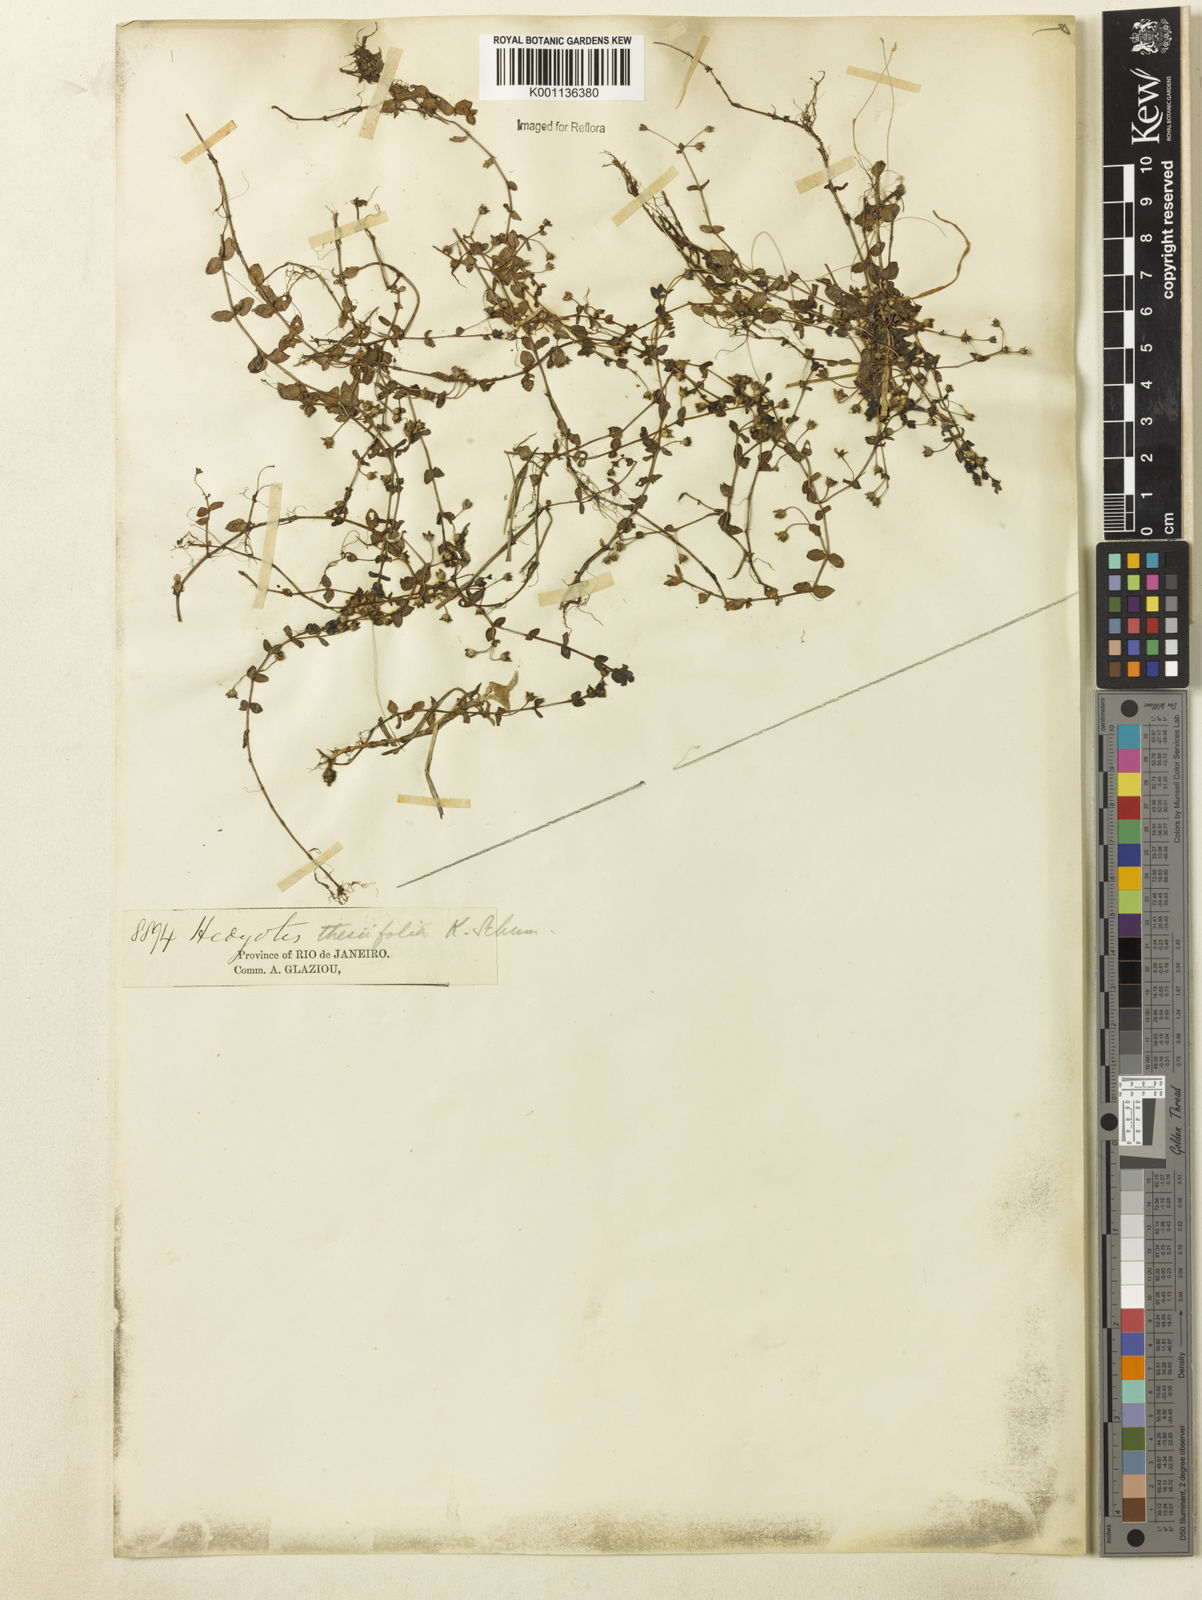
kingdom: Plantae
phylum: Tracheophyta
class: Magnoliopsida
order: Gentianales
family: Rubiaceae
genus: Oldenlandia
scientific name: Oldenlandia salzmannii
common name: Salzmann's mille graines
